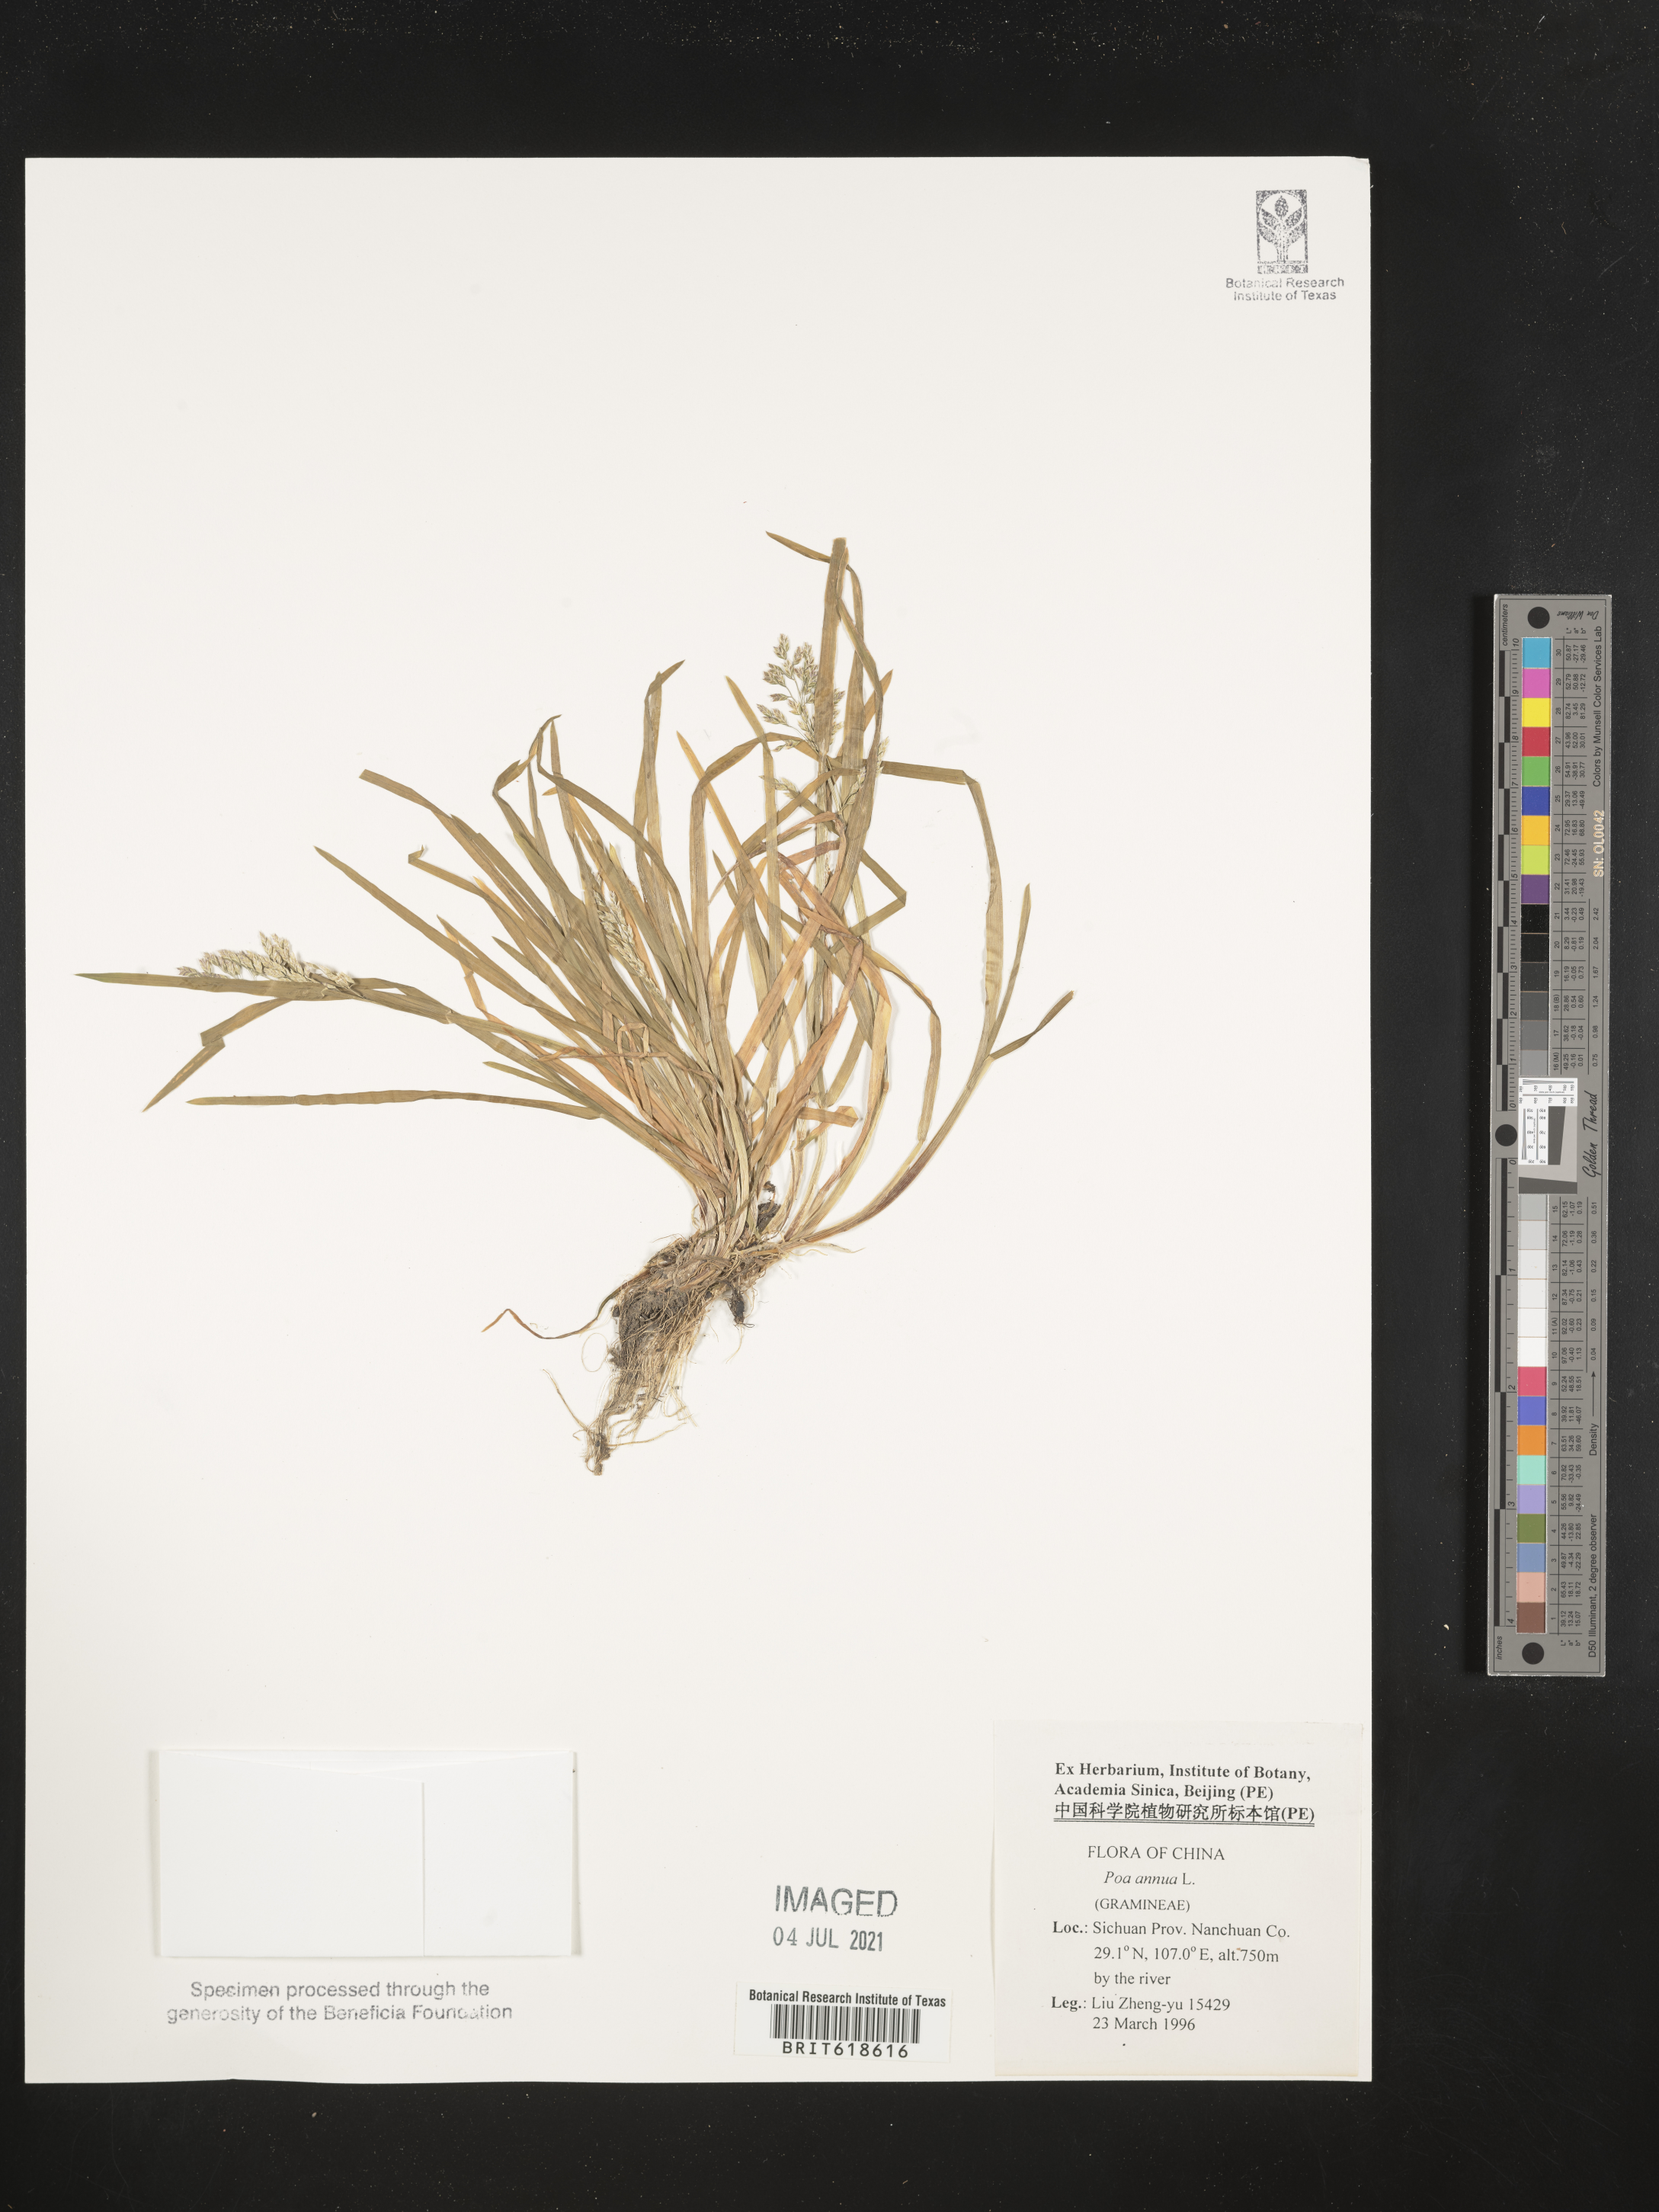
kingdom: Plantae
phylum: Tracheophyta
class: Liliopsida
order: Poales
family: Poaceae
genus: Poa
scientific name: Poa annua
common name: Annual bluegrass
